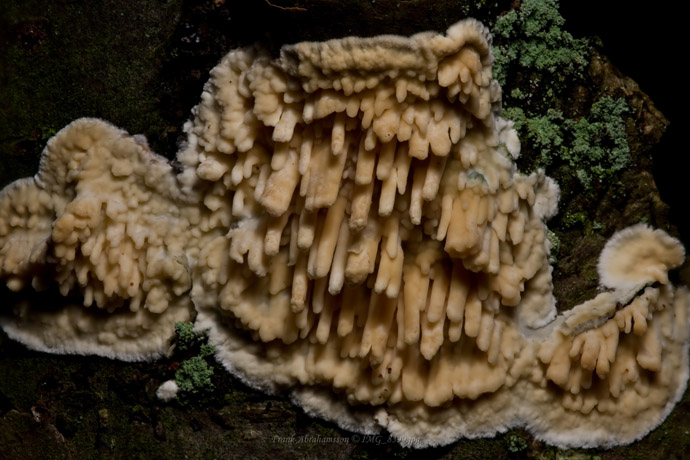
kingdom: Fungi
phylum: Basidiomycota
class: Agaricomycetes
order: Hymenochaetales
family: Schizoporaceae
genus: Xylodon
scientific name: Xylodon radula
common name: grovtandet kalkskind
